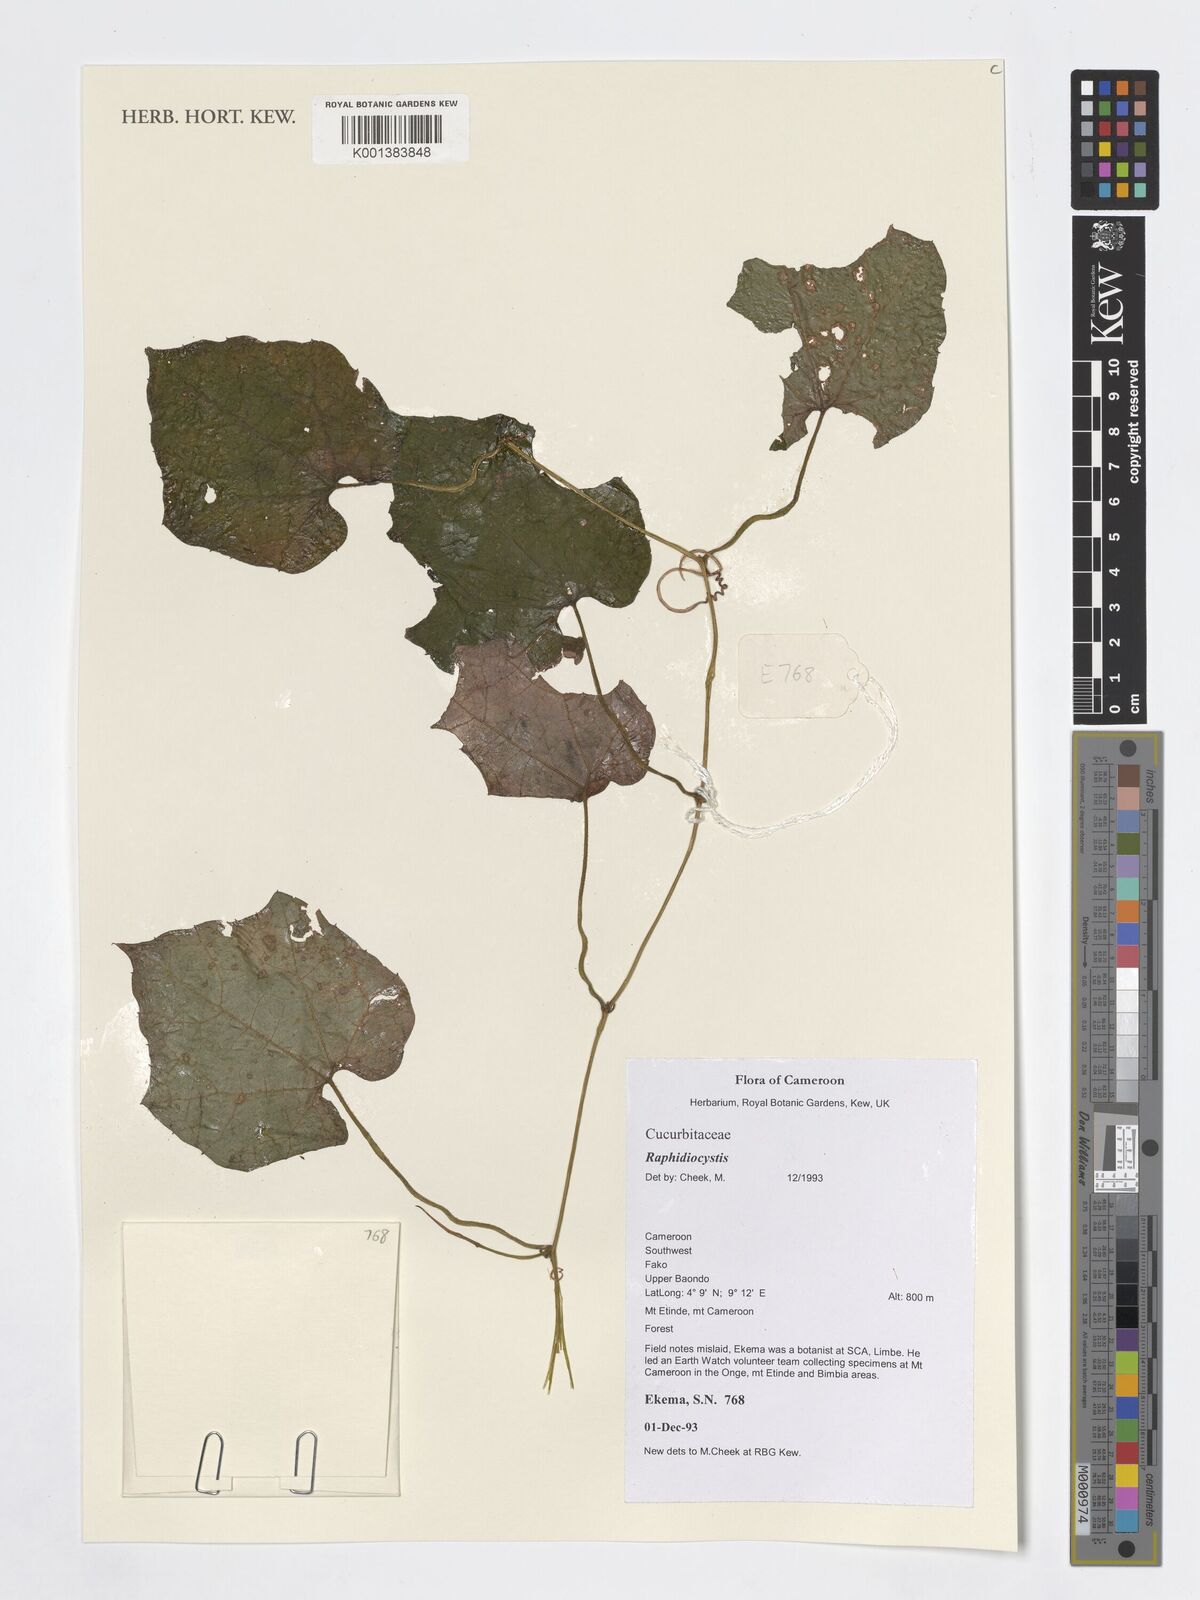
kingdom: Plantae
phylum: Tracheophyta
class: Magnoliopsida
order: Cucurbitales
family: Cucurbitaceae
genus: Raphidiocystis
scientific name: Raphidiocystis
